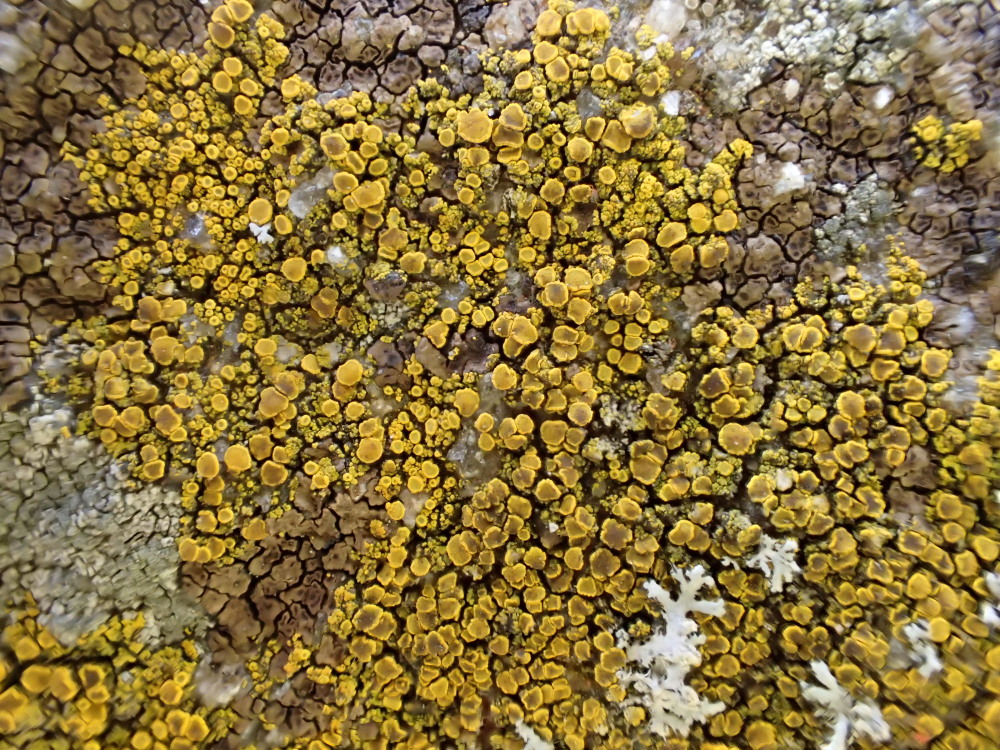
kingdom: Fungi
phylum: Ascomycota
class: Candelariomycetes
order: Candelariales
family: Candelariaceae
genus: Candelariella
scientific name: Candelariella vitellina
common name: almindelig æggeblommelav
